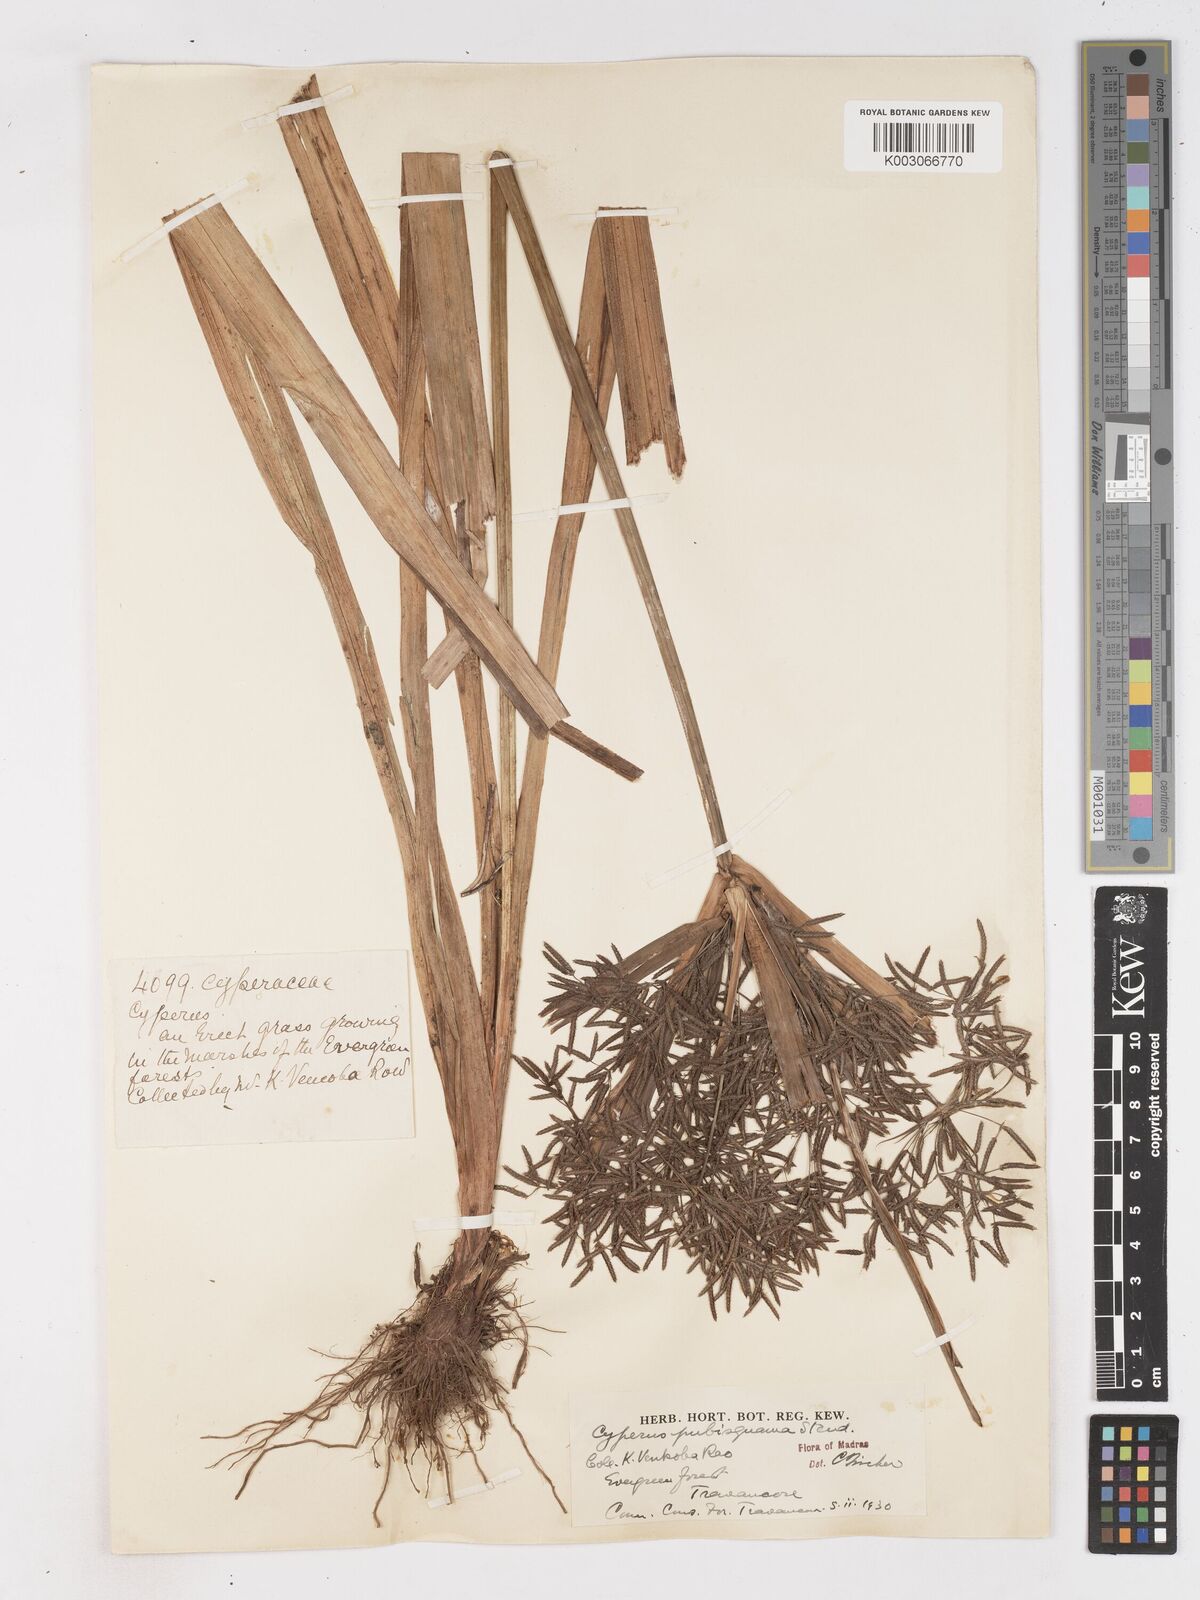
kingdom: Plantae
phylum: Tracheophyta
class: Liliopsida
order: Poales
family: Cyperaceae
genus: Cyperus
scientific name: Cyperus diffusus
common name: Dwarf umbrella grass
